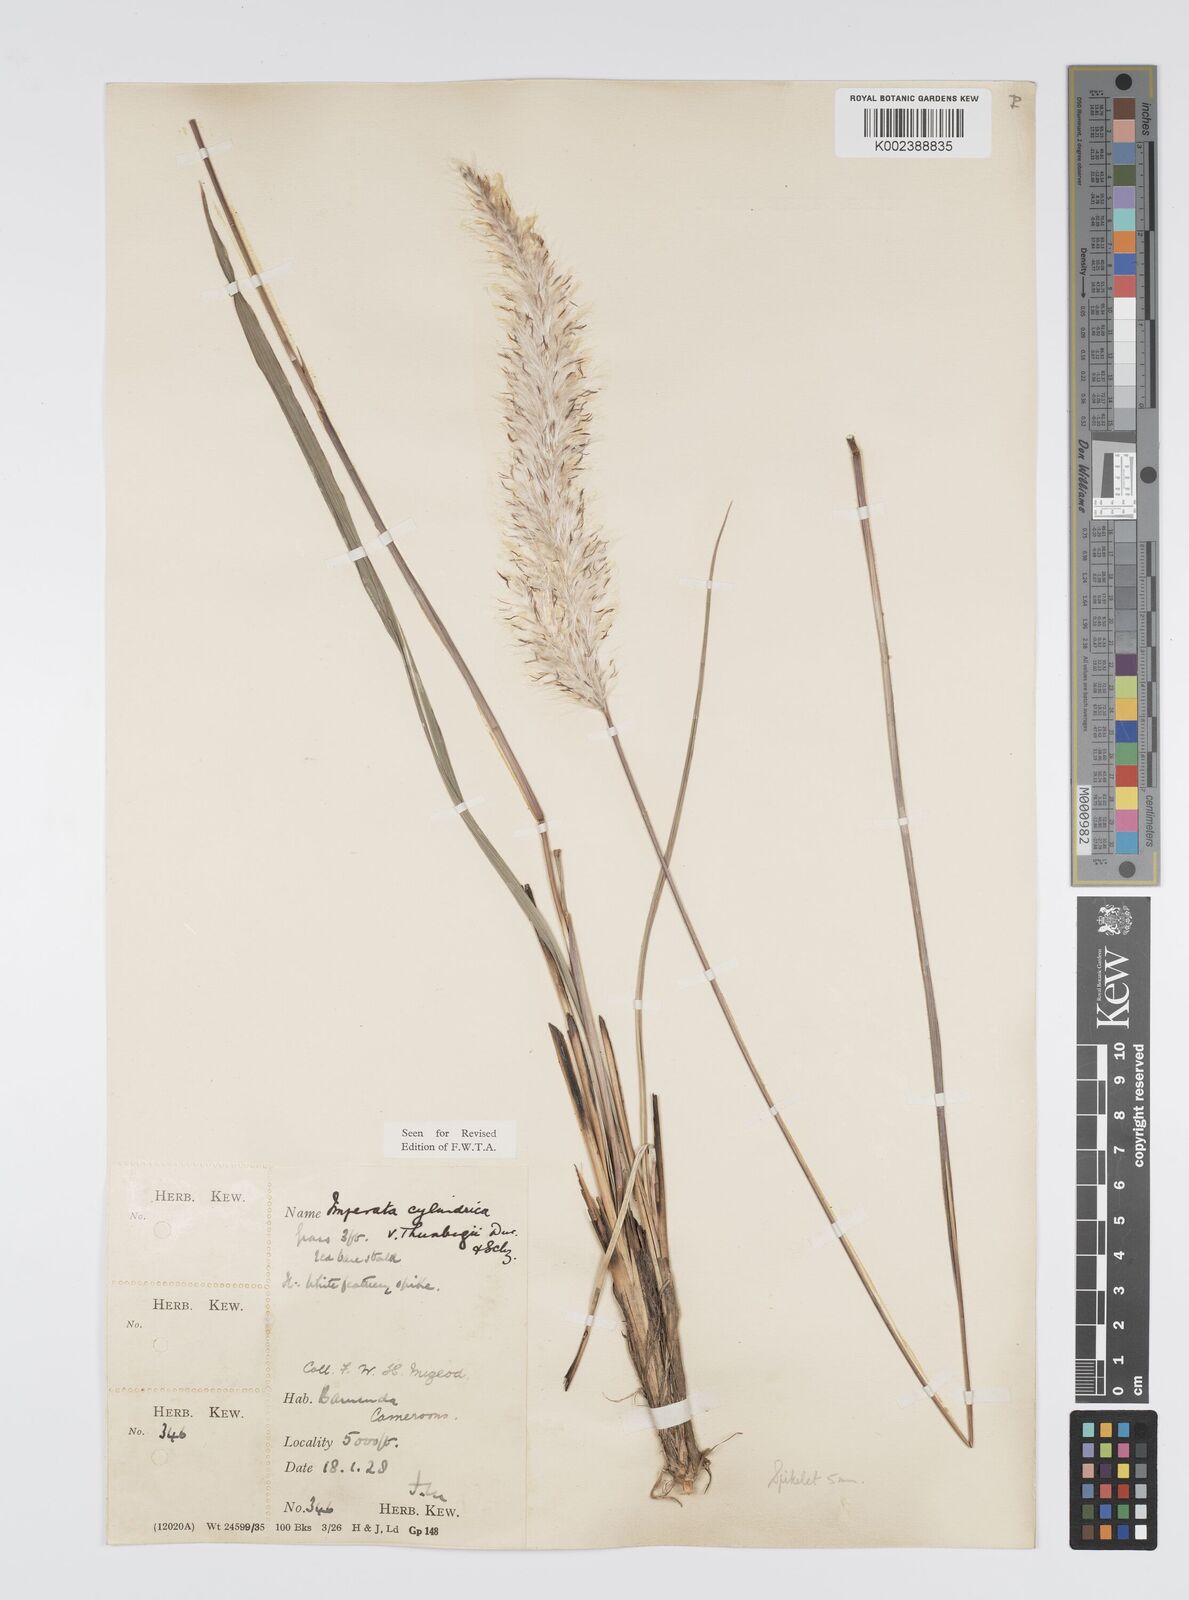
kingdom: Plantae
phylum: Tracheophyta
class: Liliopsida
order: Poales
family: Poaceae
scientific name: Poaceae
